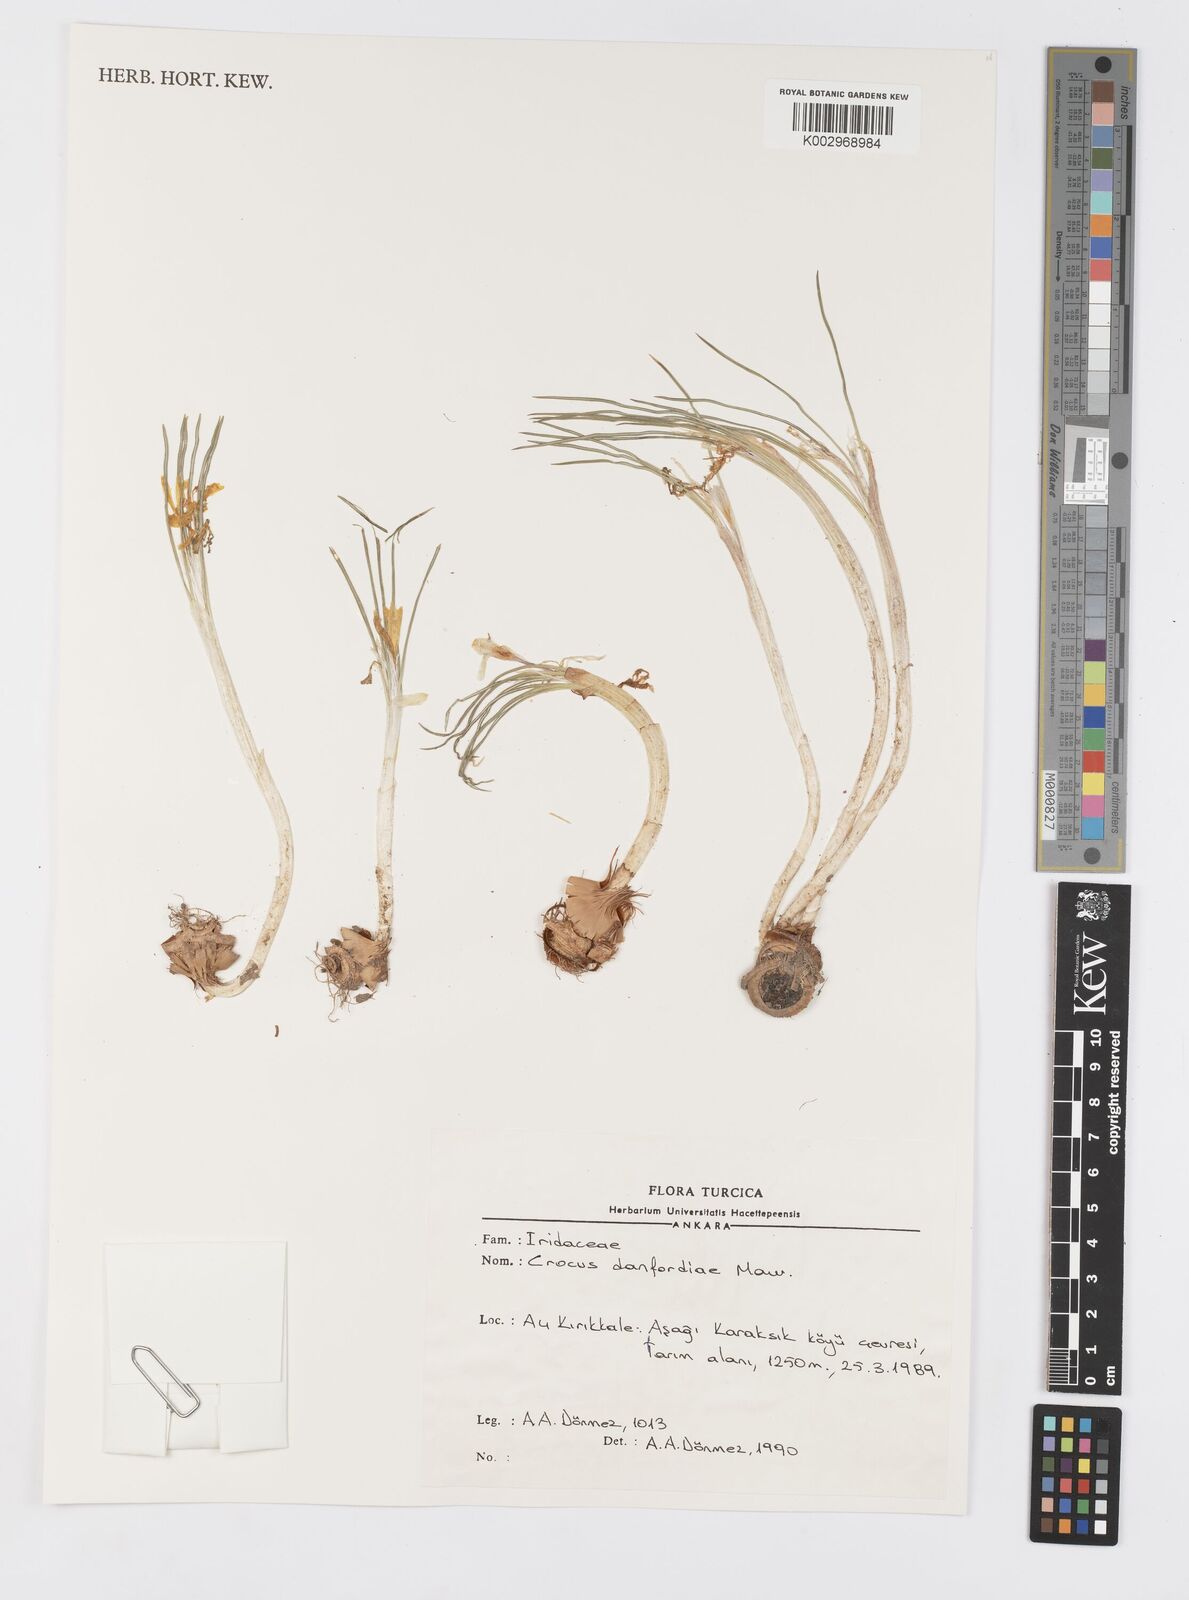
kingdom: Plantae
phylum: Tracheophyta
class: Liliopsida
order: Asparagales
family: Iridaceae
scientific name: Iridaceae
